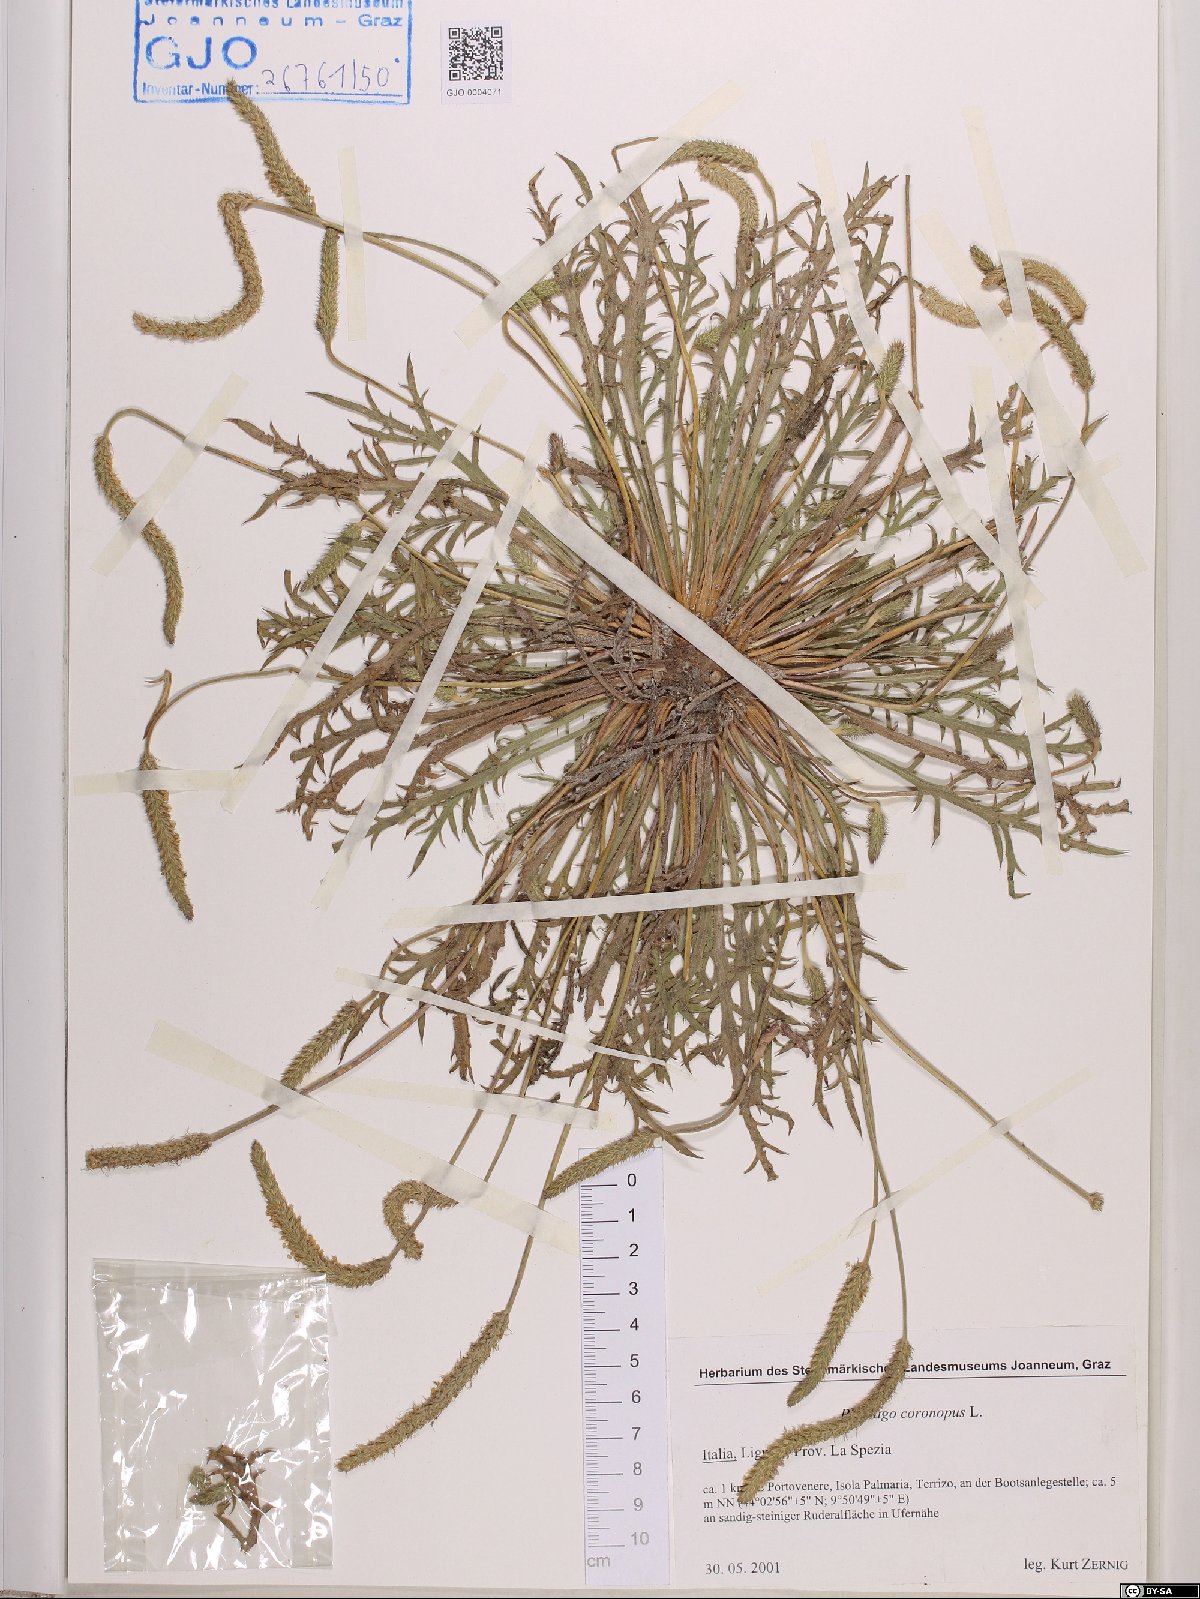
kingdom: Plantae
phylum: Tracheophyta
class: Magnoliopsida
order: Lamiales
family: Plantaginaceae
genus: Plantago
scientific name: Plantago coronopus
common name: Buck's-horn plantain
